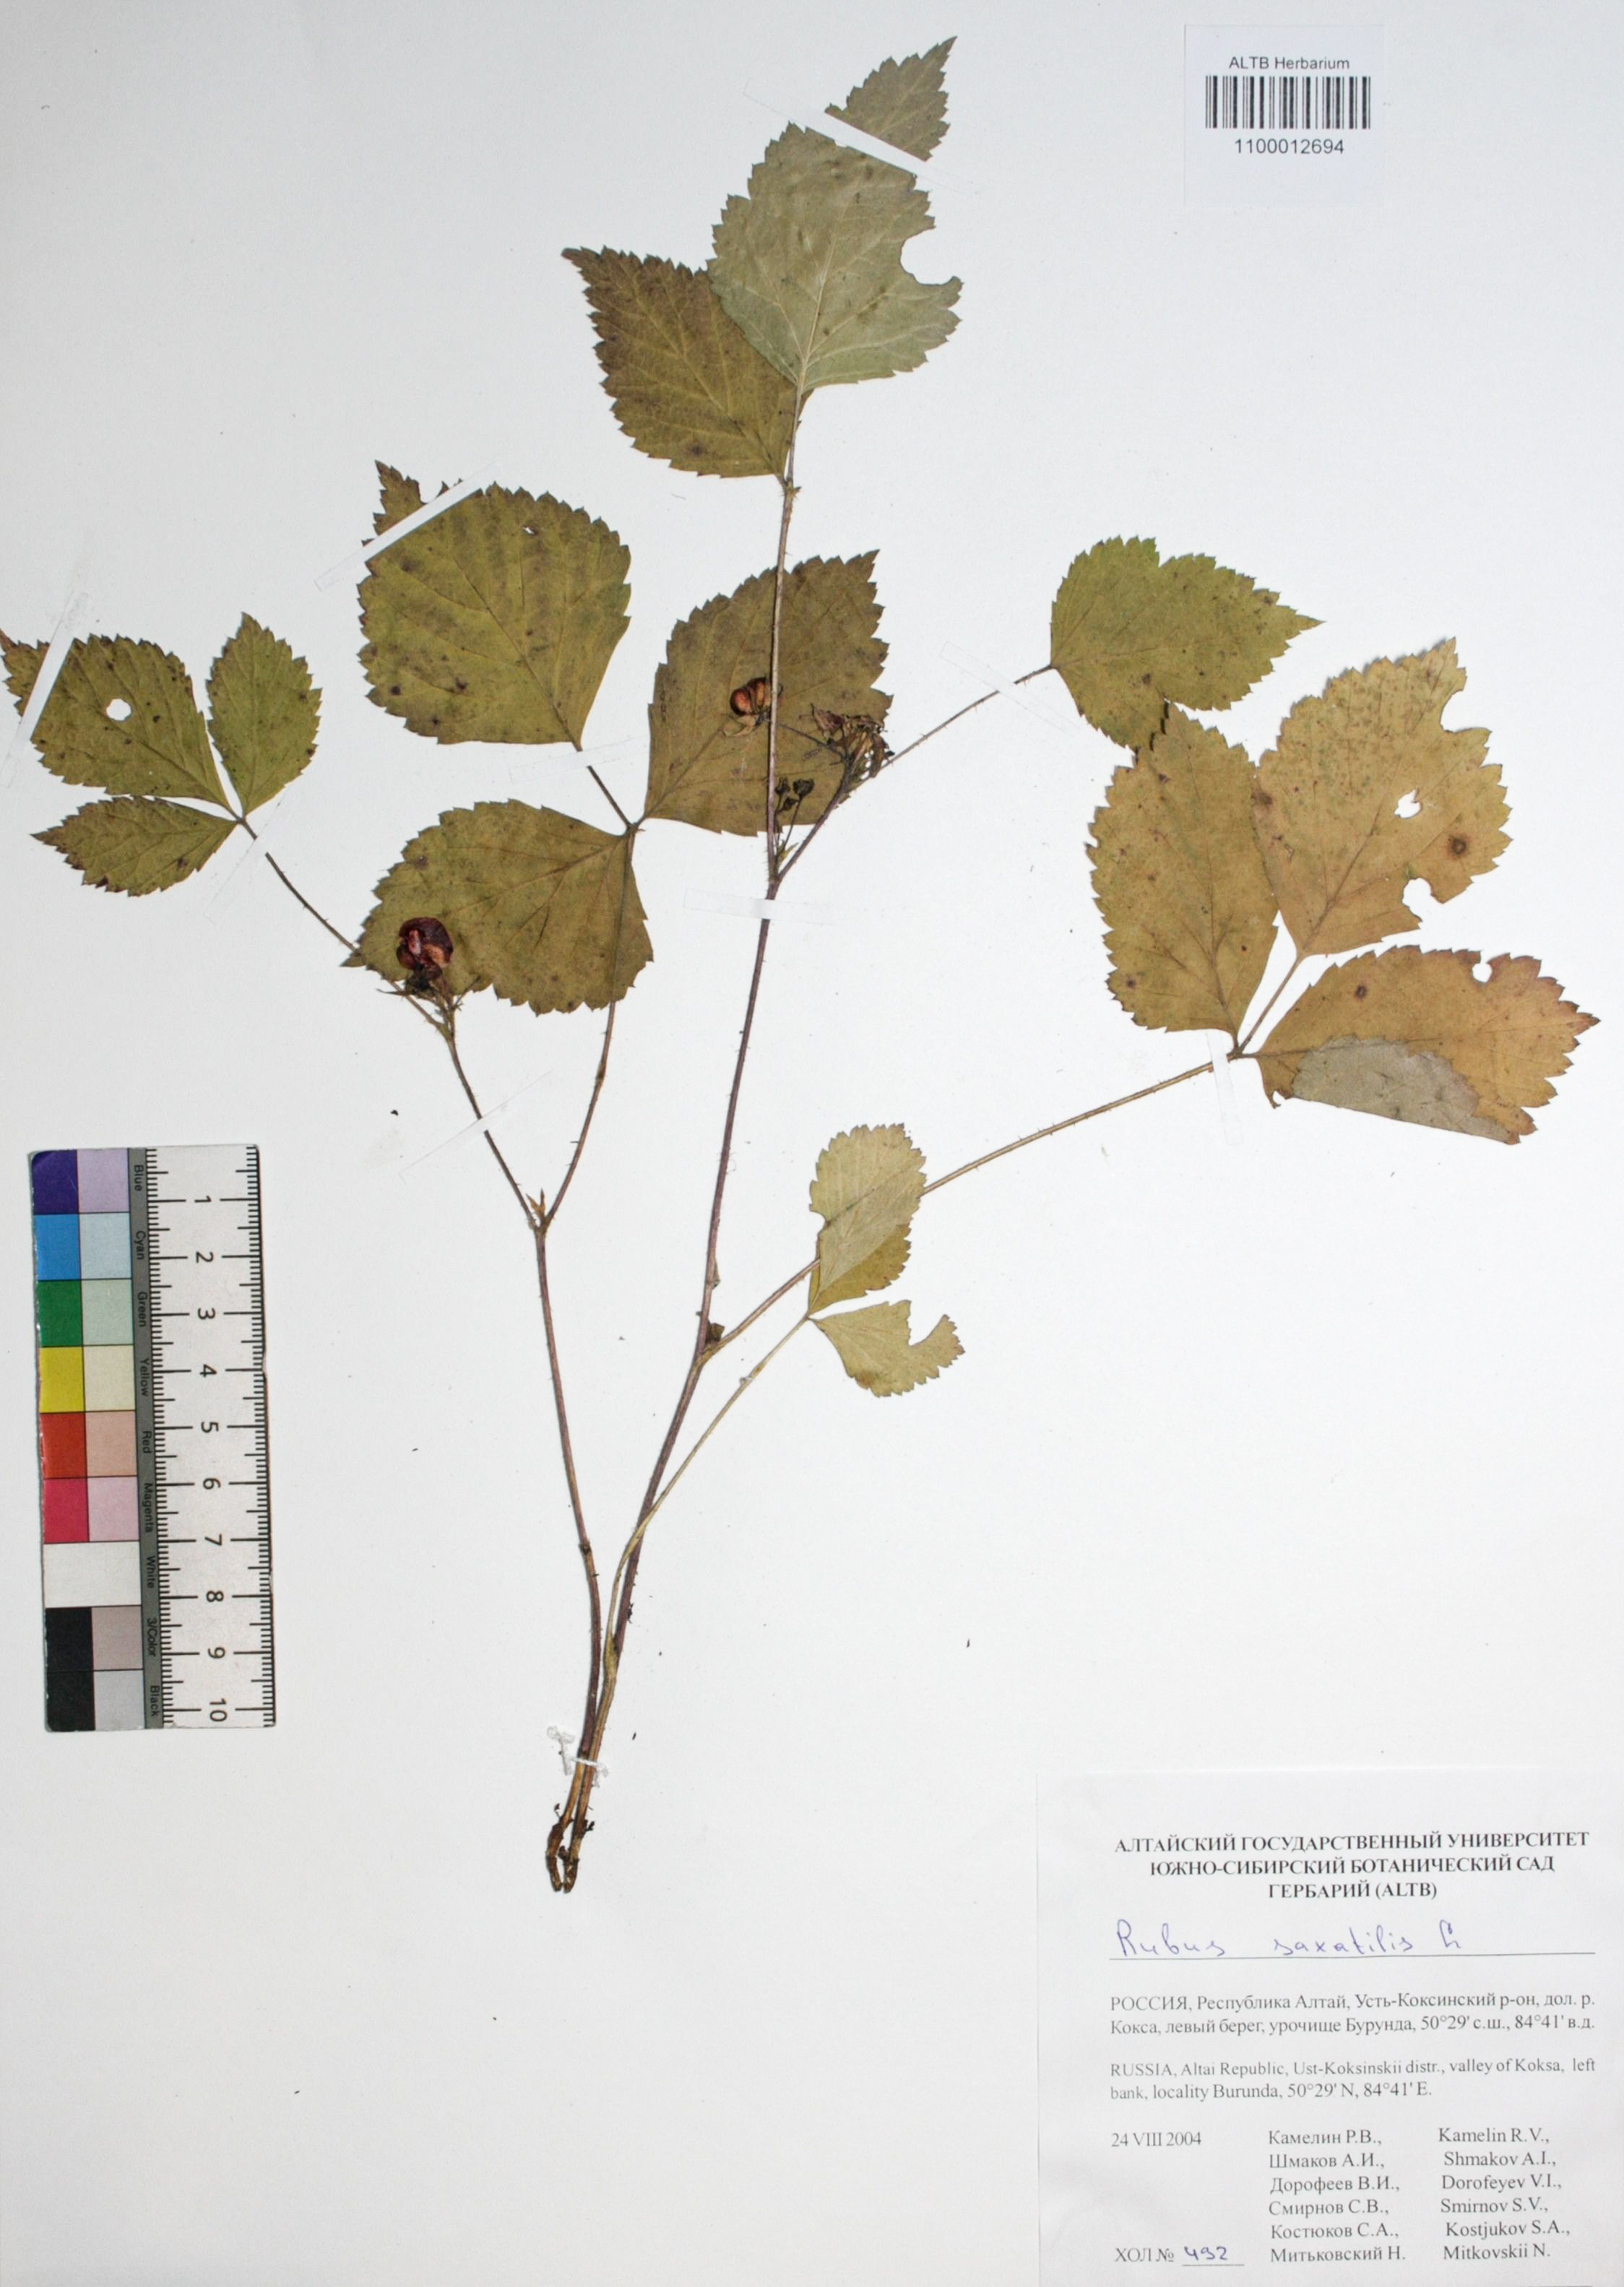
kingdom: Plantae
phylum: Tracheophyta
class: Magnoliopsida
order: Rosales
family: Rosaceae
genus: Rubus
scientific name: Rubus saxatilis
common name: Stone bramble
